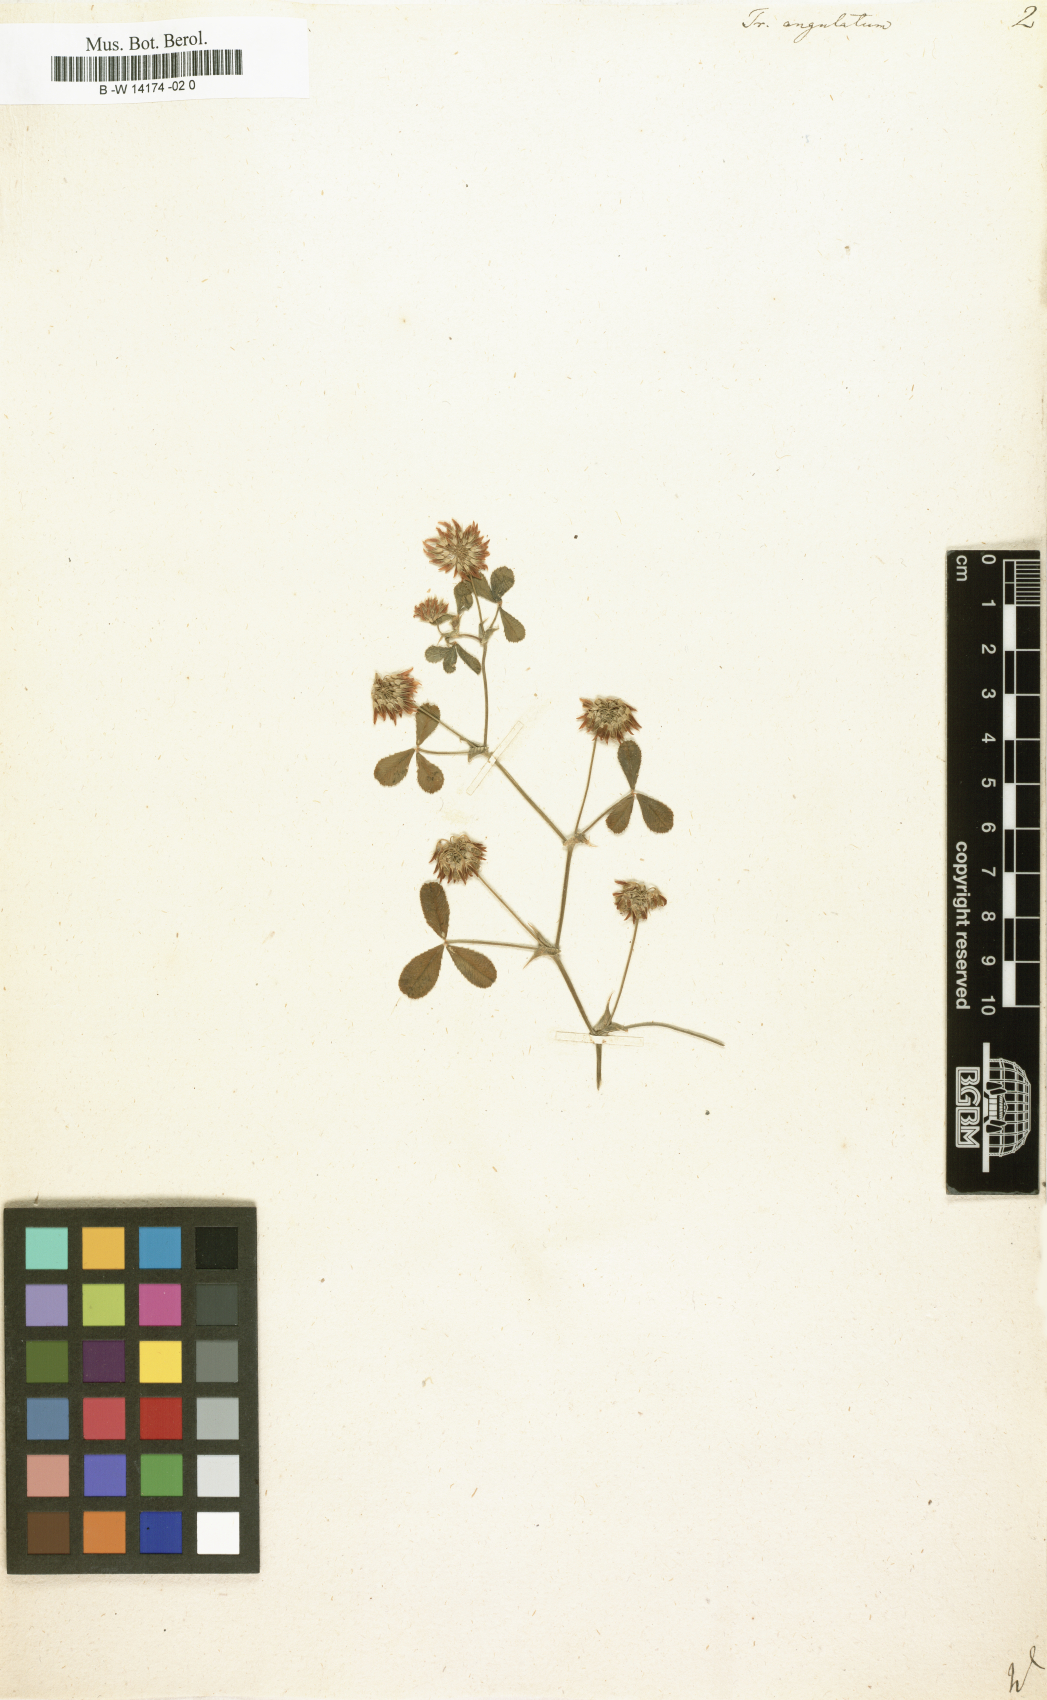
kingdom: Plantae
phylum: Tracheophyta
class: Magnoliopsida
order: Fabales
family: Fabaceae
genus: Trifolium
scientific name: Trifolium angulatum
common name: Angled clover
